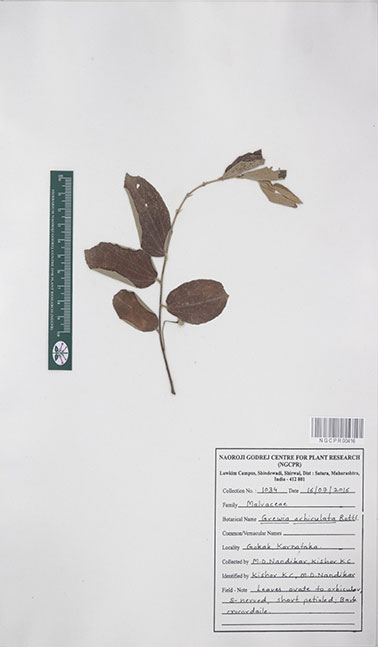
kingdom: Plantae
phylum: Tracheophyta
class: Magnoliopsida
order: Malvales
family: Malvaceae
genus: Grewia
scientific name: Grewia orbiculata
